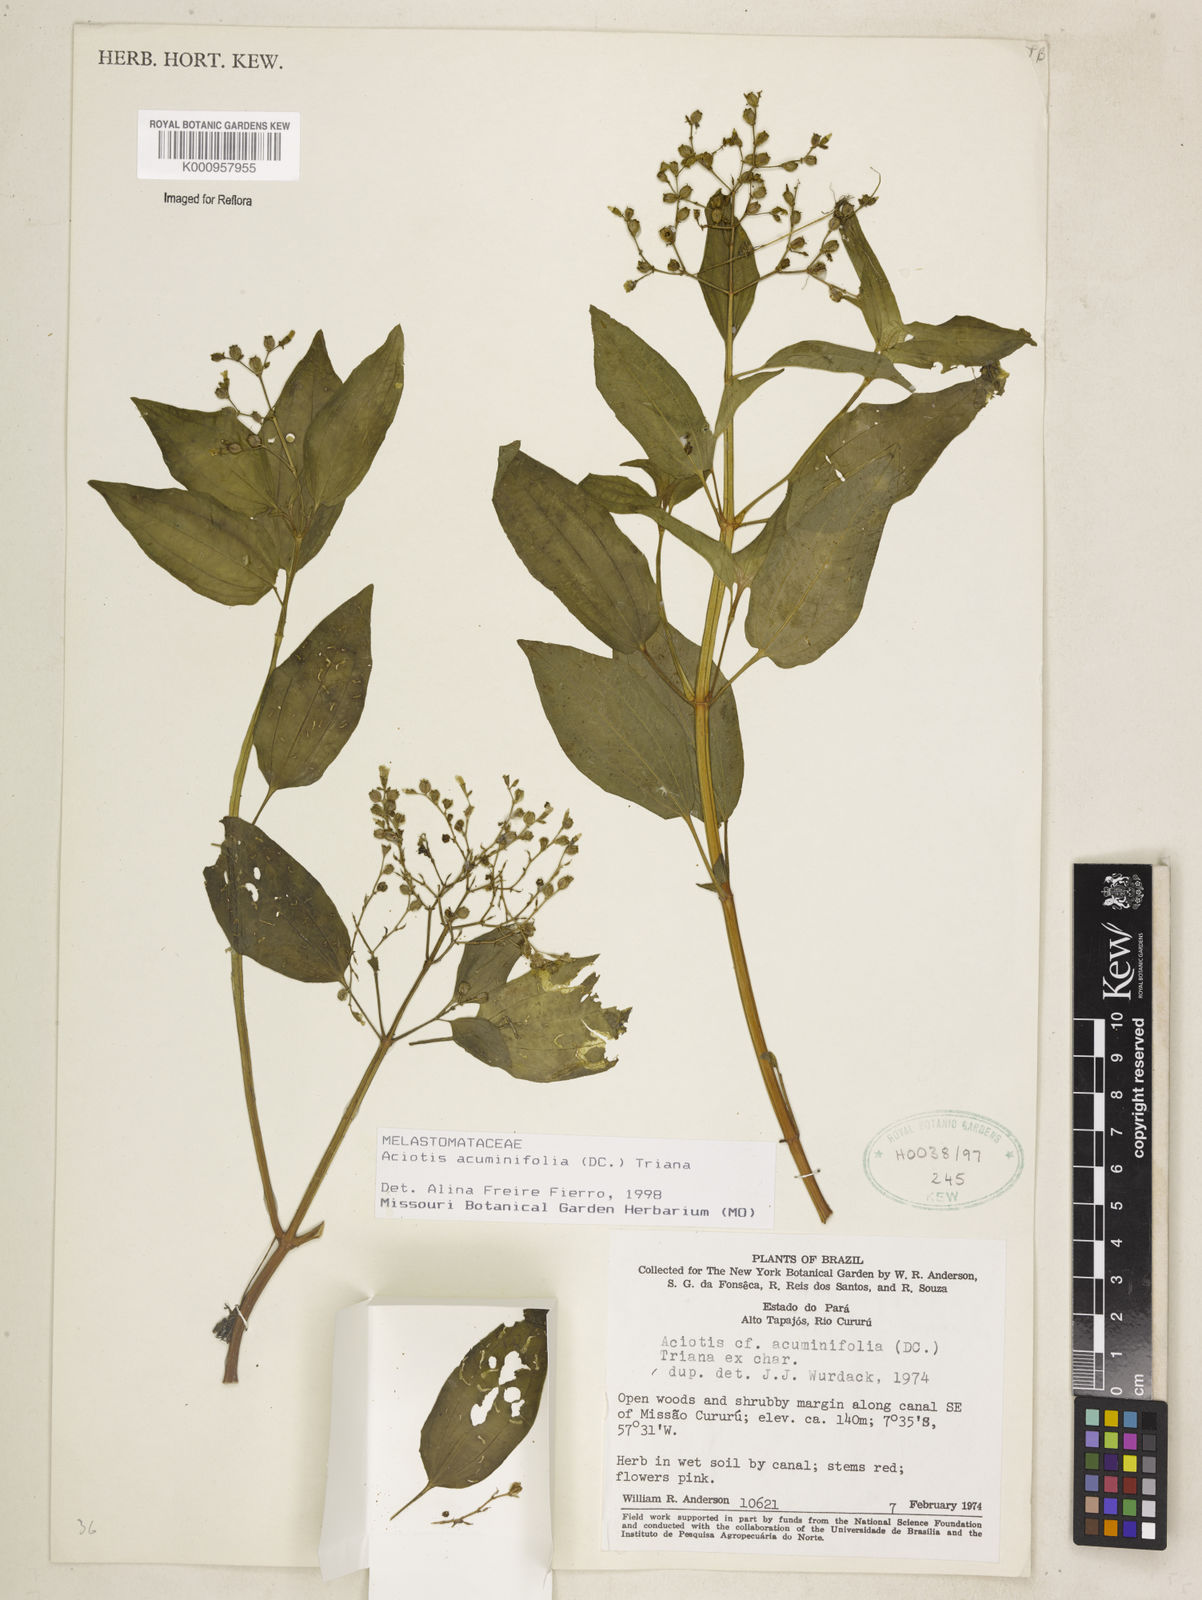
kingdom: Plantae
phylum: Tracheophyta
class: Magnoliopsida
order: Myrtales
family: Melastomataceae
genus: Aciotis
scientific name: Aciotis acuminifolia
